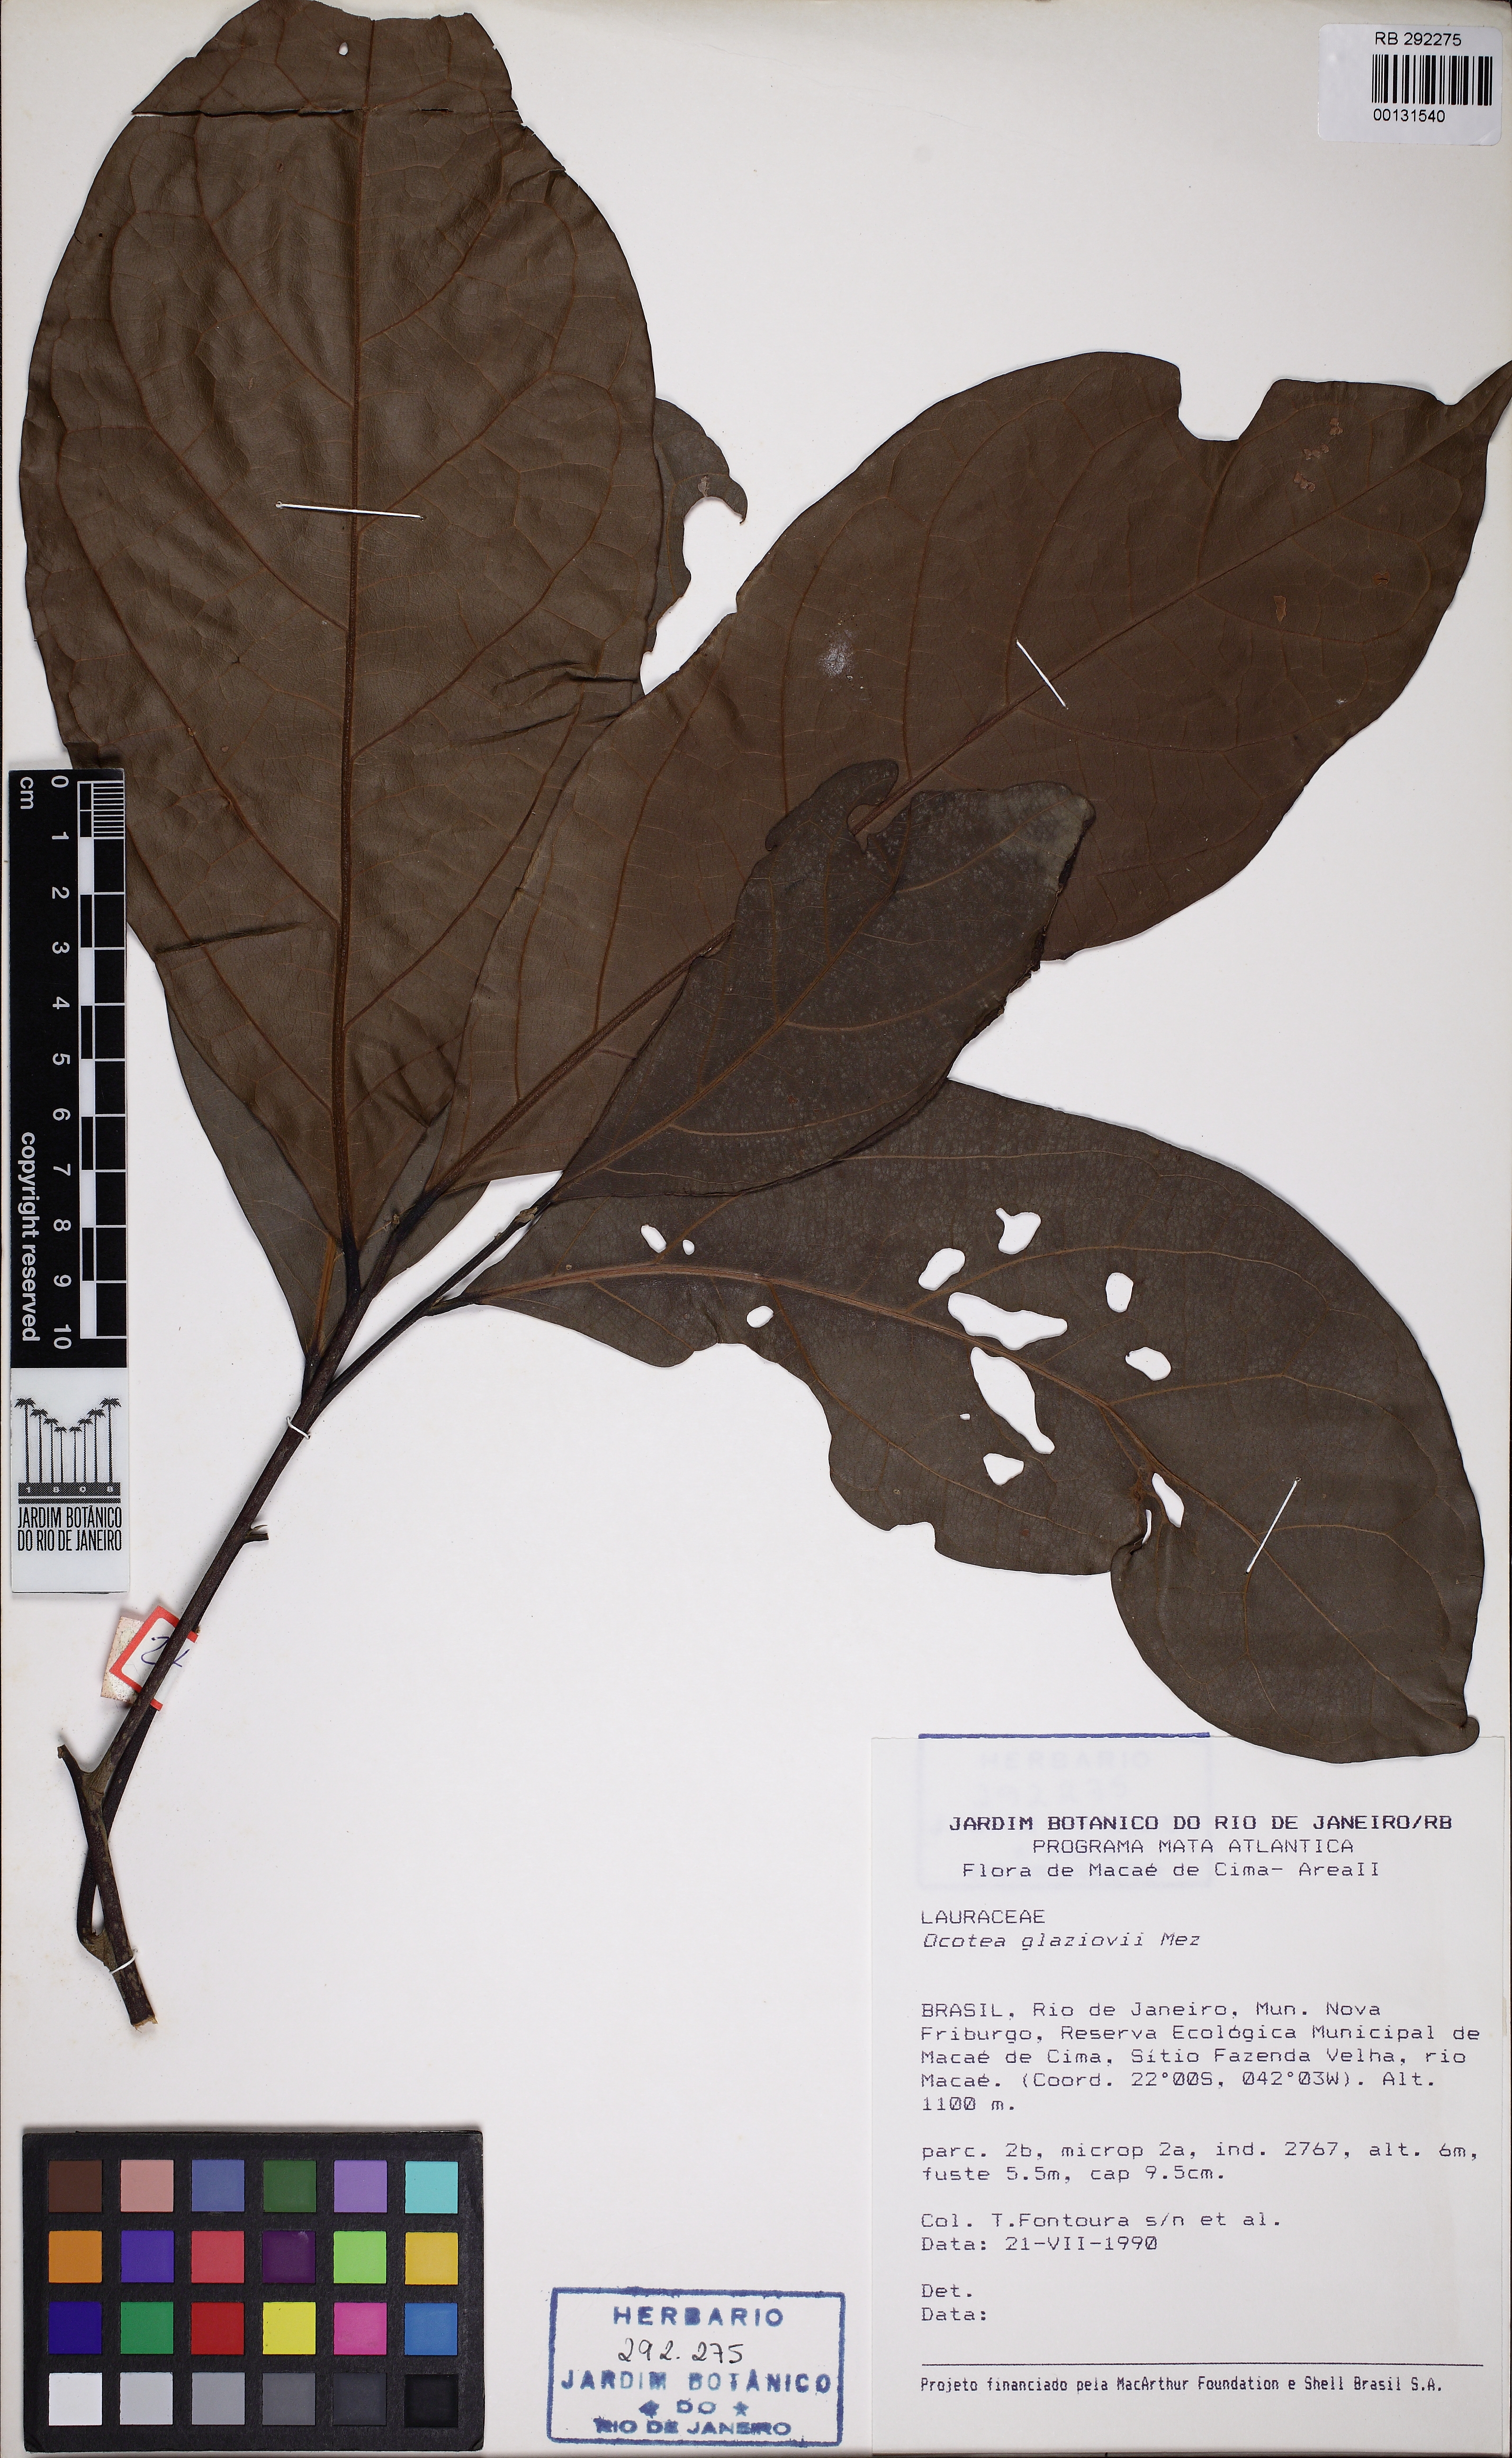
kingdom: Plantae
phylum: Tracheophyta
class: Magnoliopsida
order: Laurales
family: Lauraceae
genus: Ocotea
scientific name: Ocotea glaziovii
